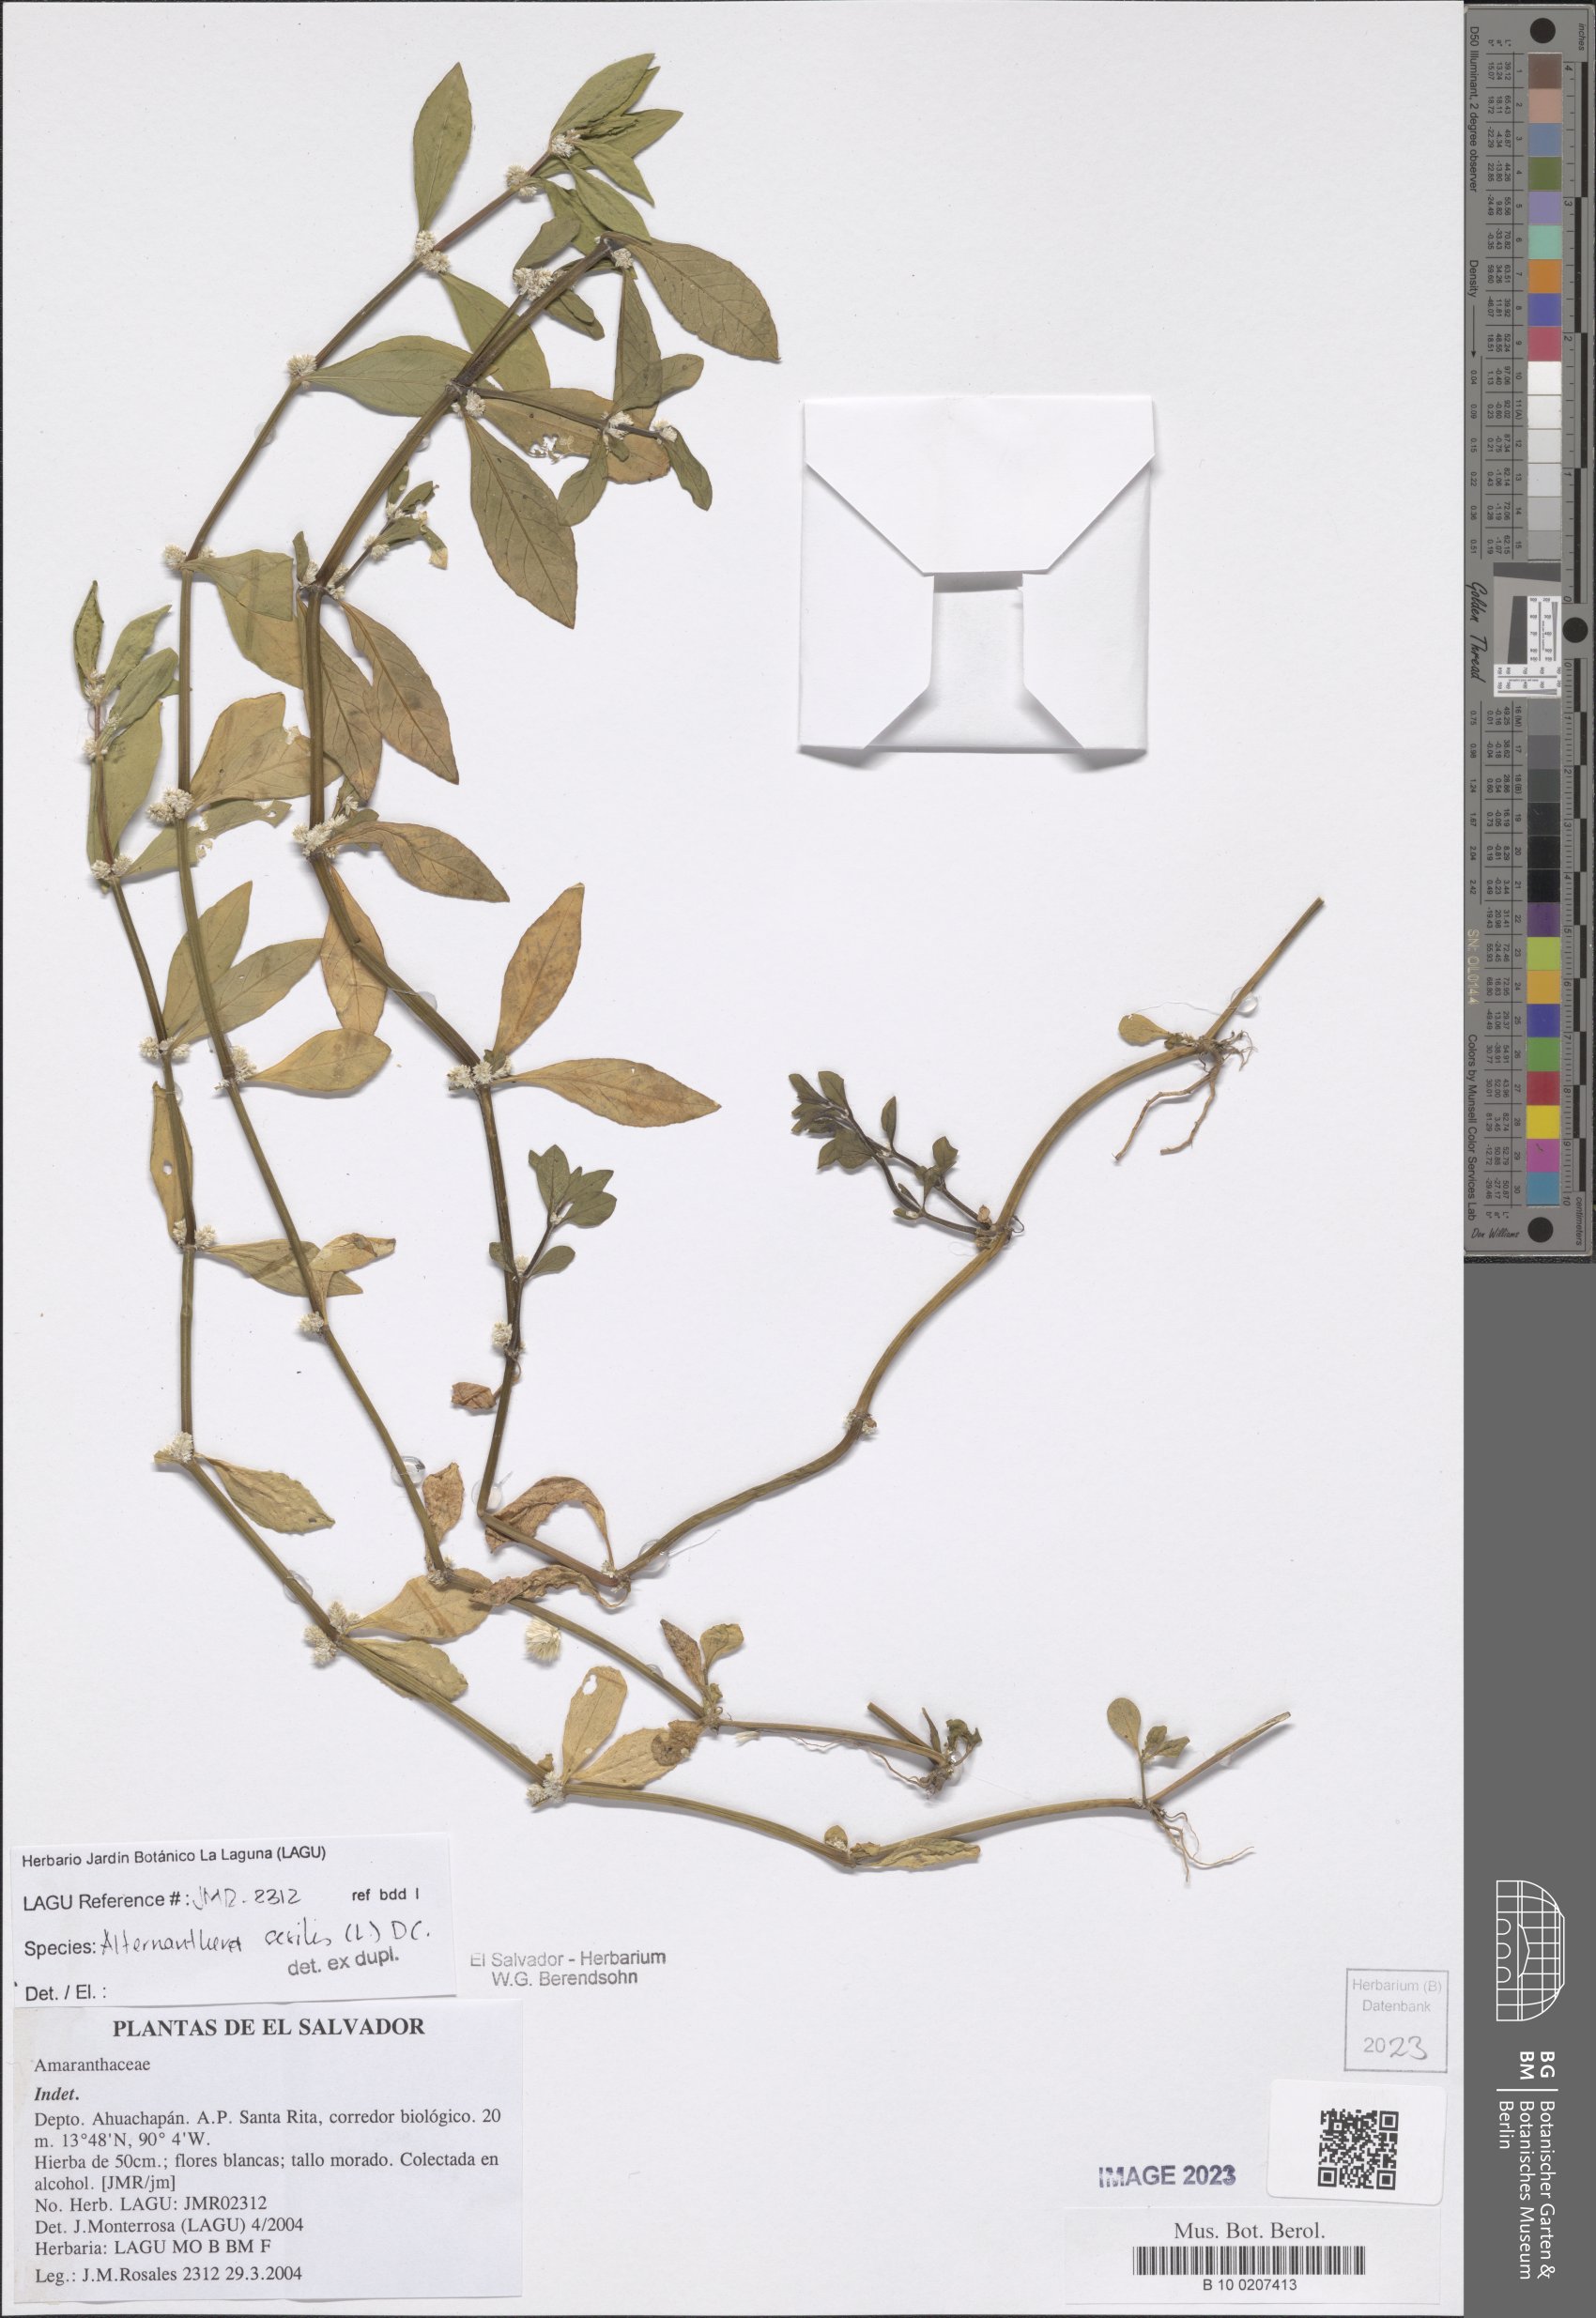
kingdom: Plantae
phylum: Tracheophyta
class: Magnoliopsida
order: Caryophyllales
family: Amaranthaceae
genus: Alternanthera
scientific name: Alternanthera sessilis
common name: Sessile joyweed
